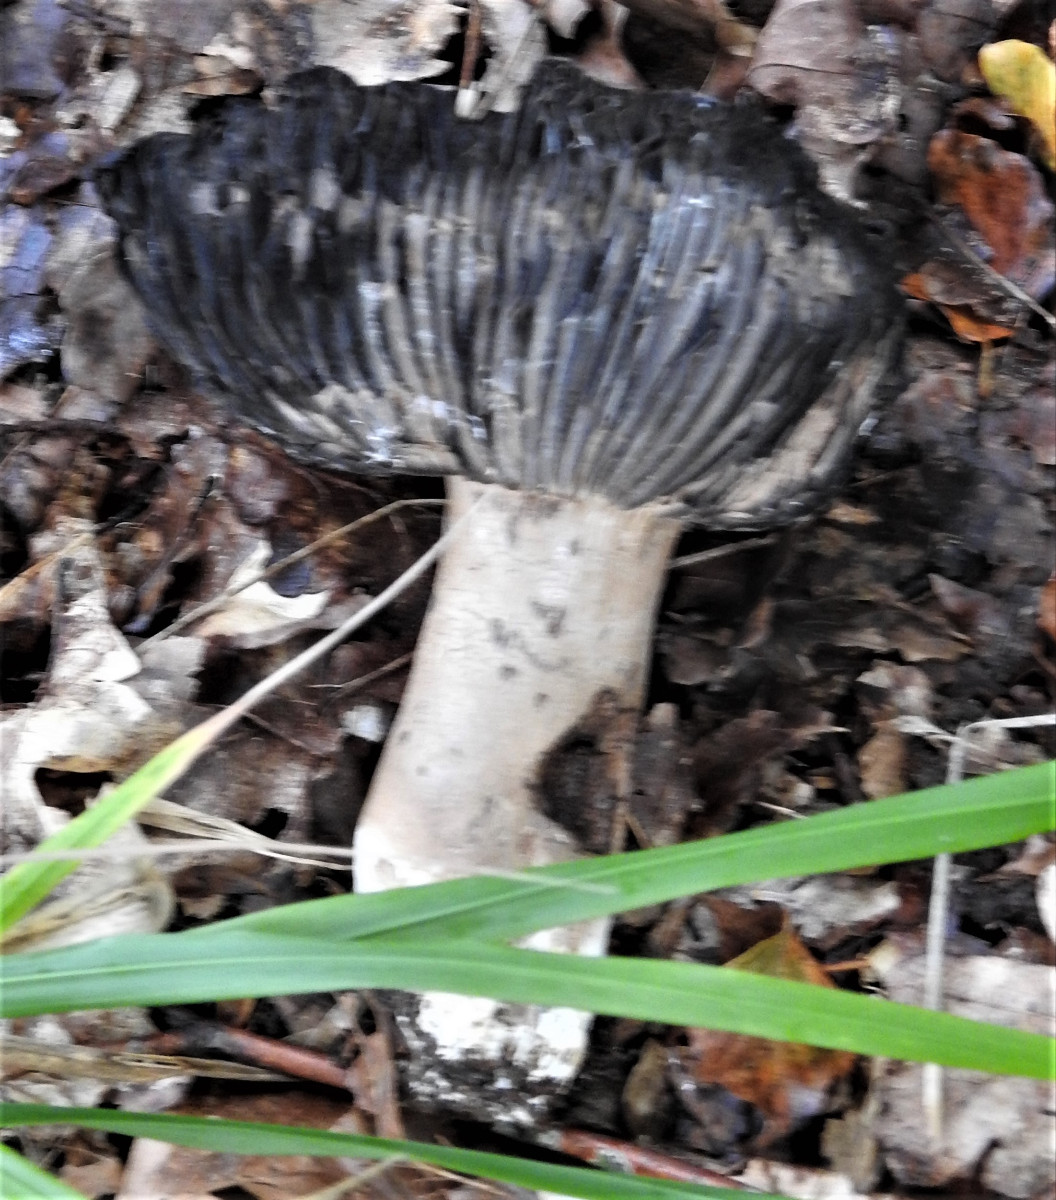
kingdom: Fungi
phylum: Basidiomycota
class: Agaricomycetes
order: Russulales
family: Russulaceae
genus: Russula
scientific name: Russula adusta
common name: sværtende skørhat
